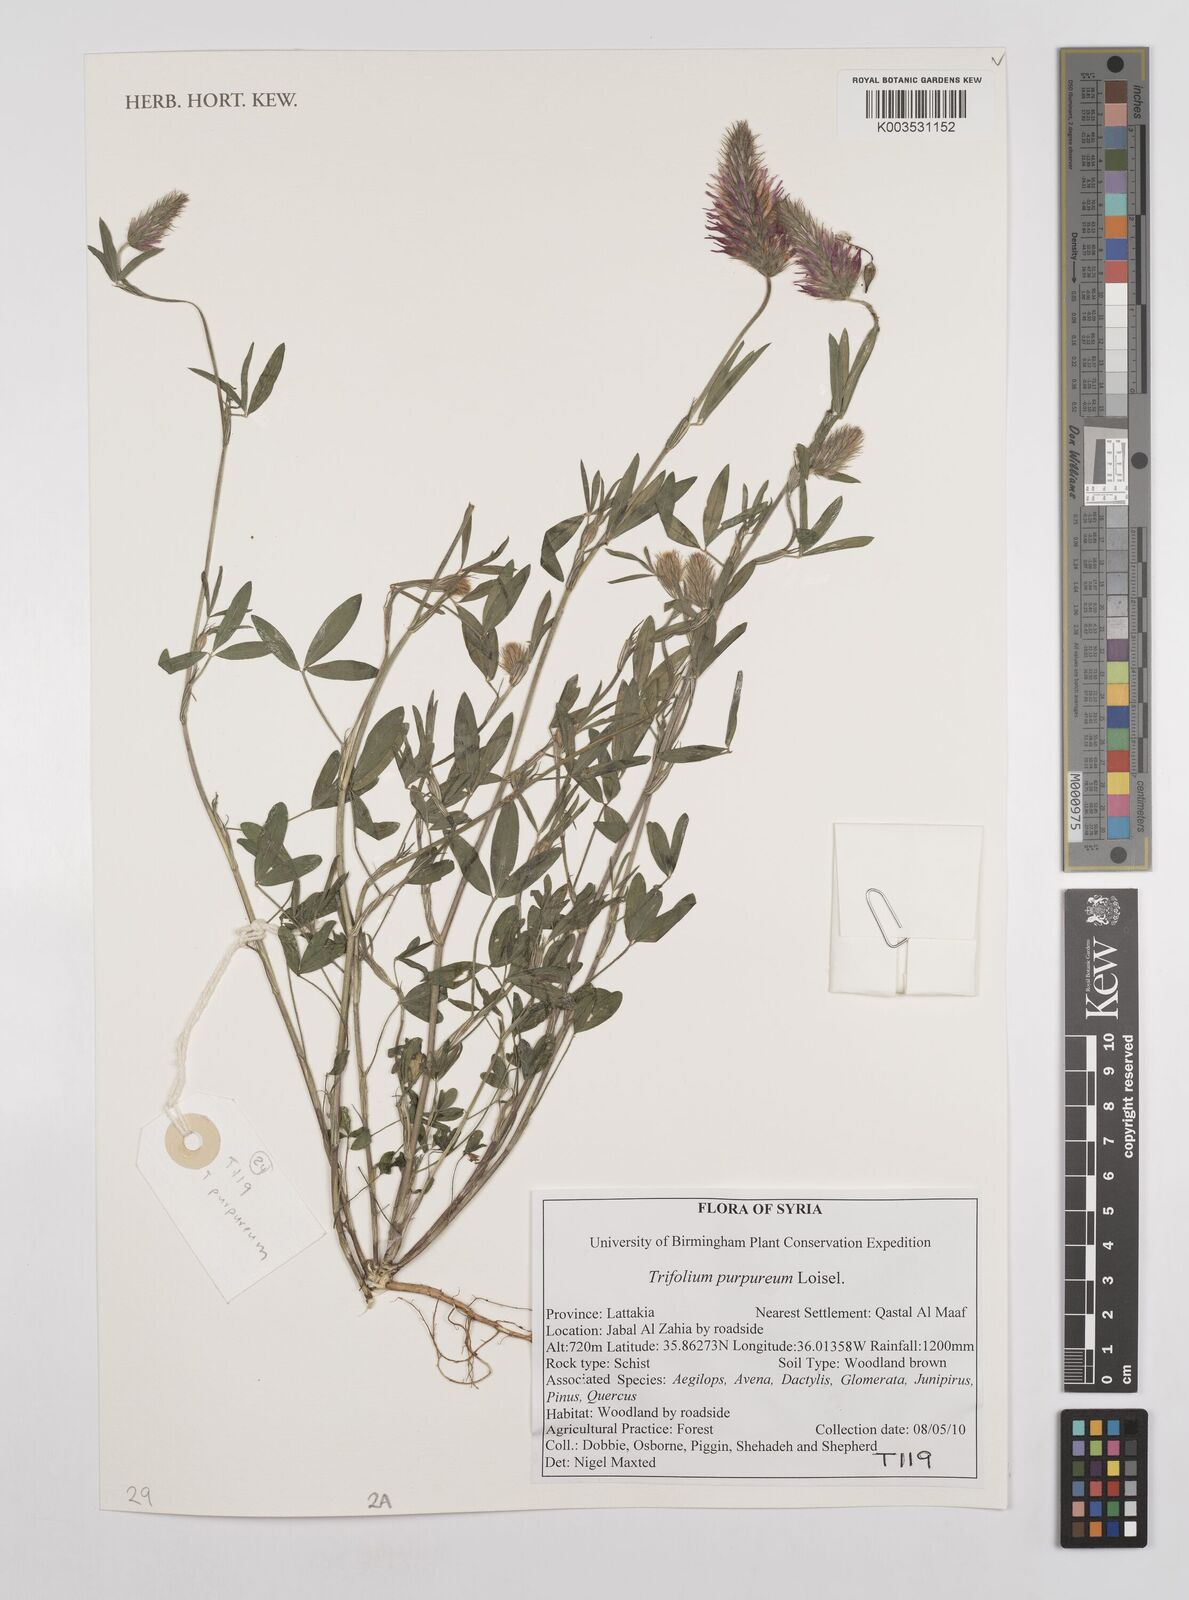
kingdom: Plantae
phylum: Tracheophyta
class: Magnoliopsida
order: Fabales
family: Fabaceae
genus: Trifolium
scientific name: Trifolium purpureum
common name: Purple clover
